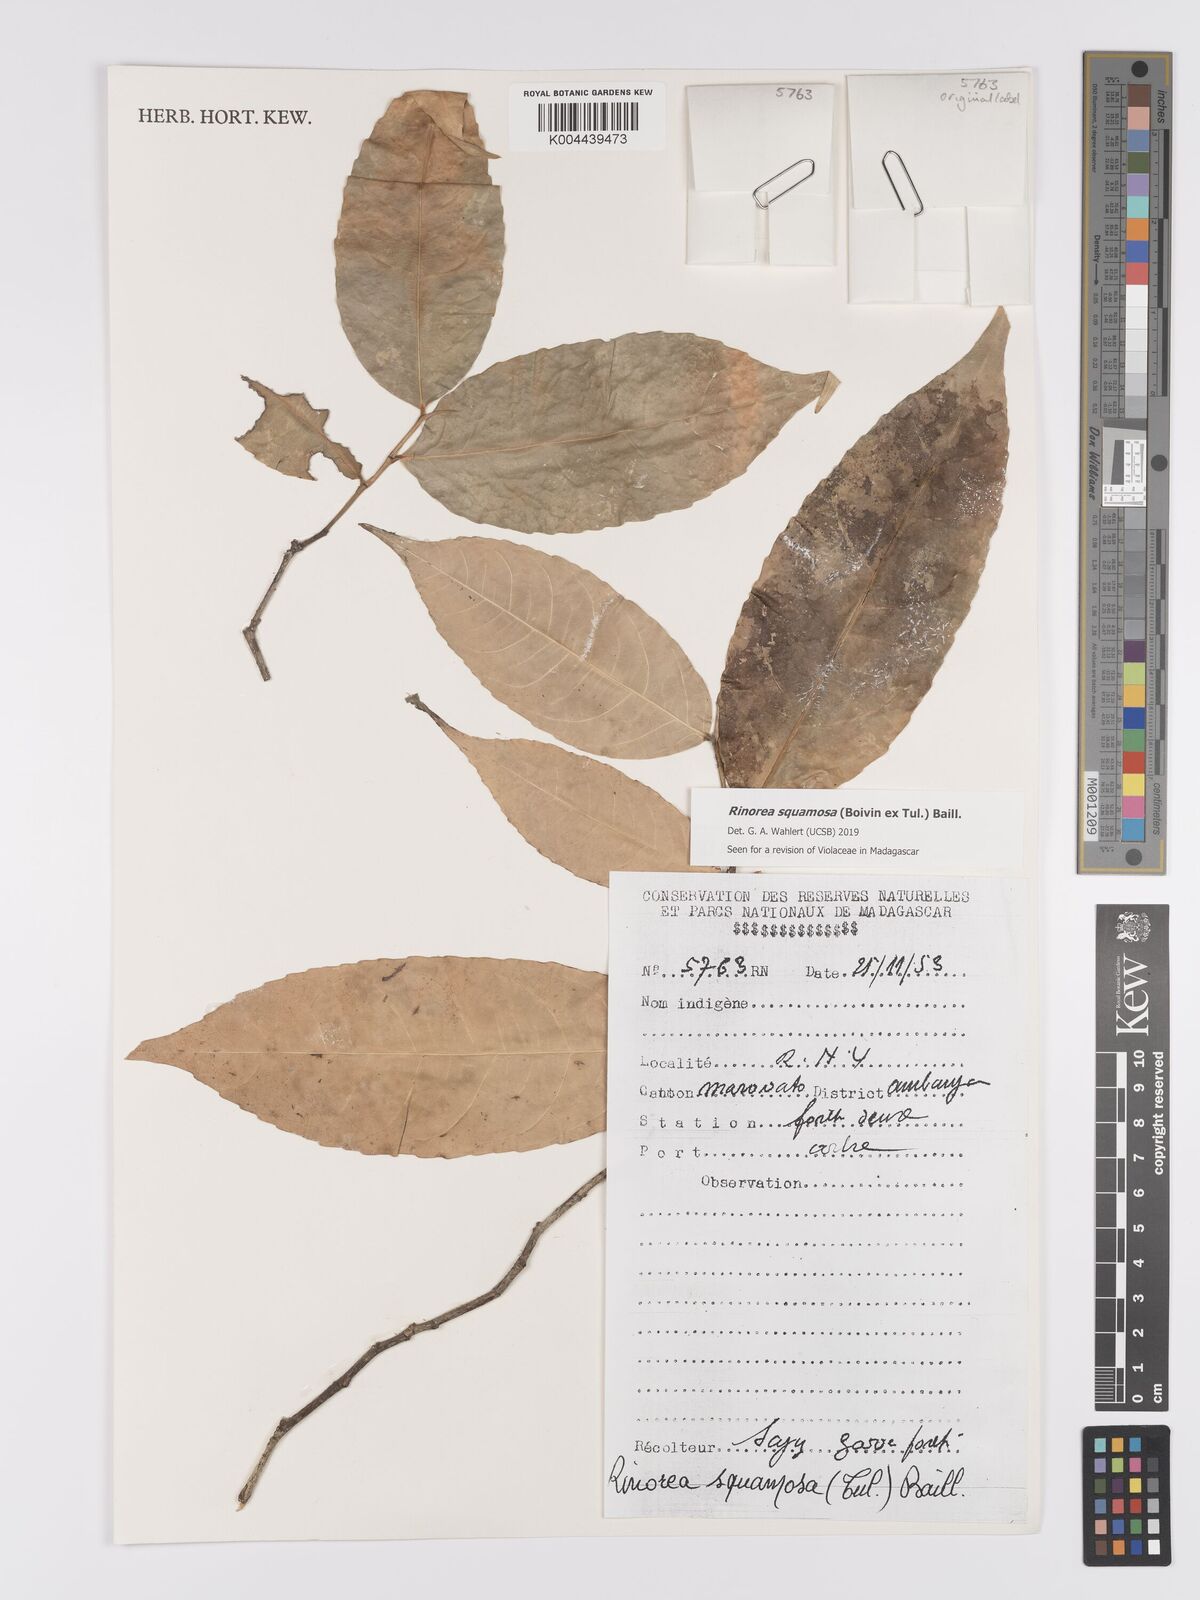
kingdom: Plantae
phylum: Tracheophyta
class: Magnoliopsida
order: Malpighiales
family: Violaceae
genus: Rinorea
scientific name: Rinorea squamosa
